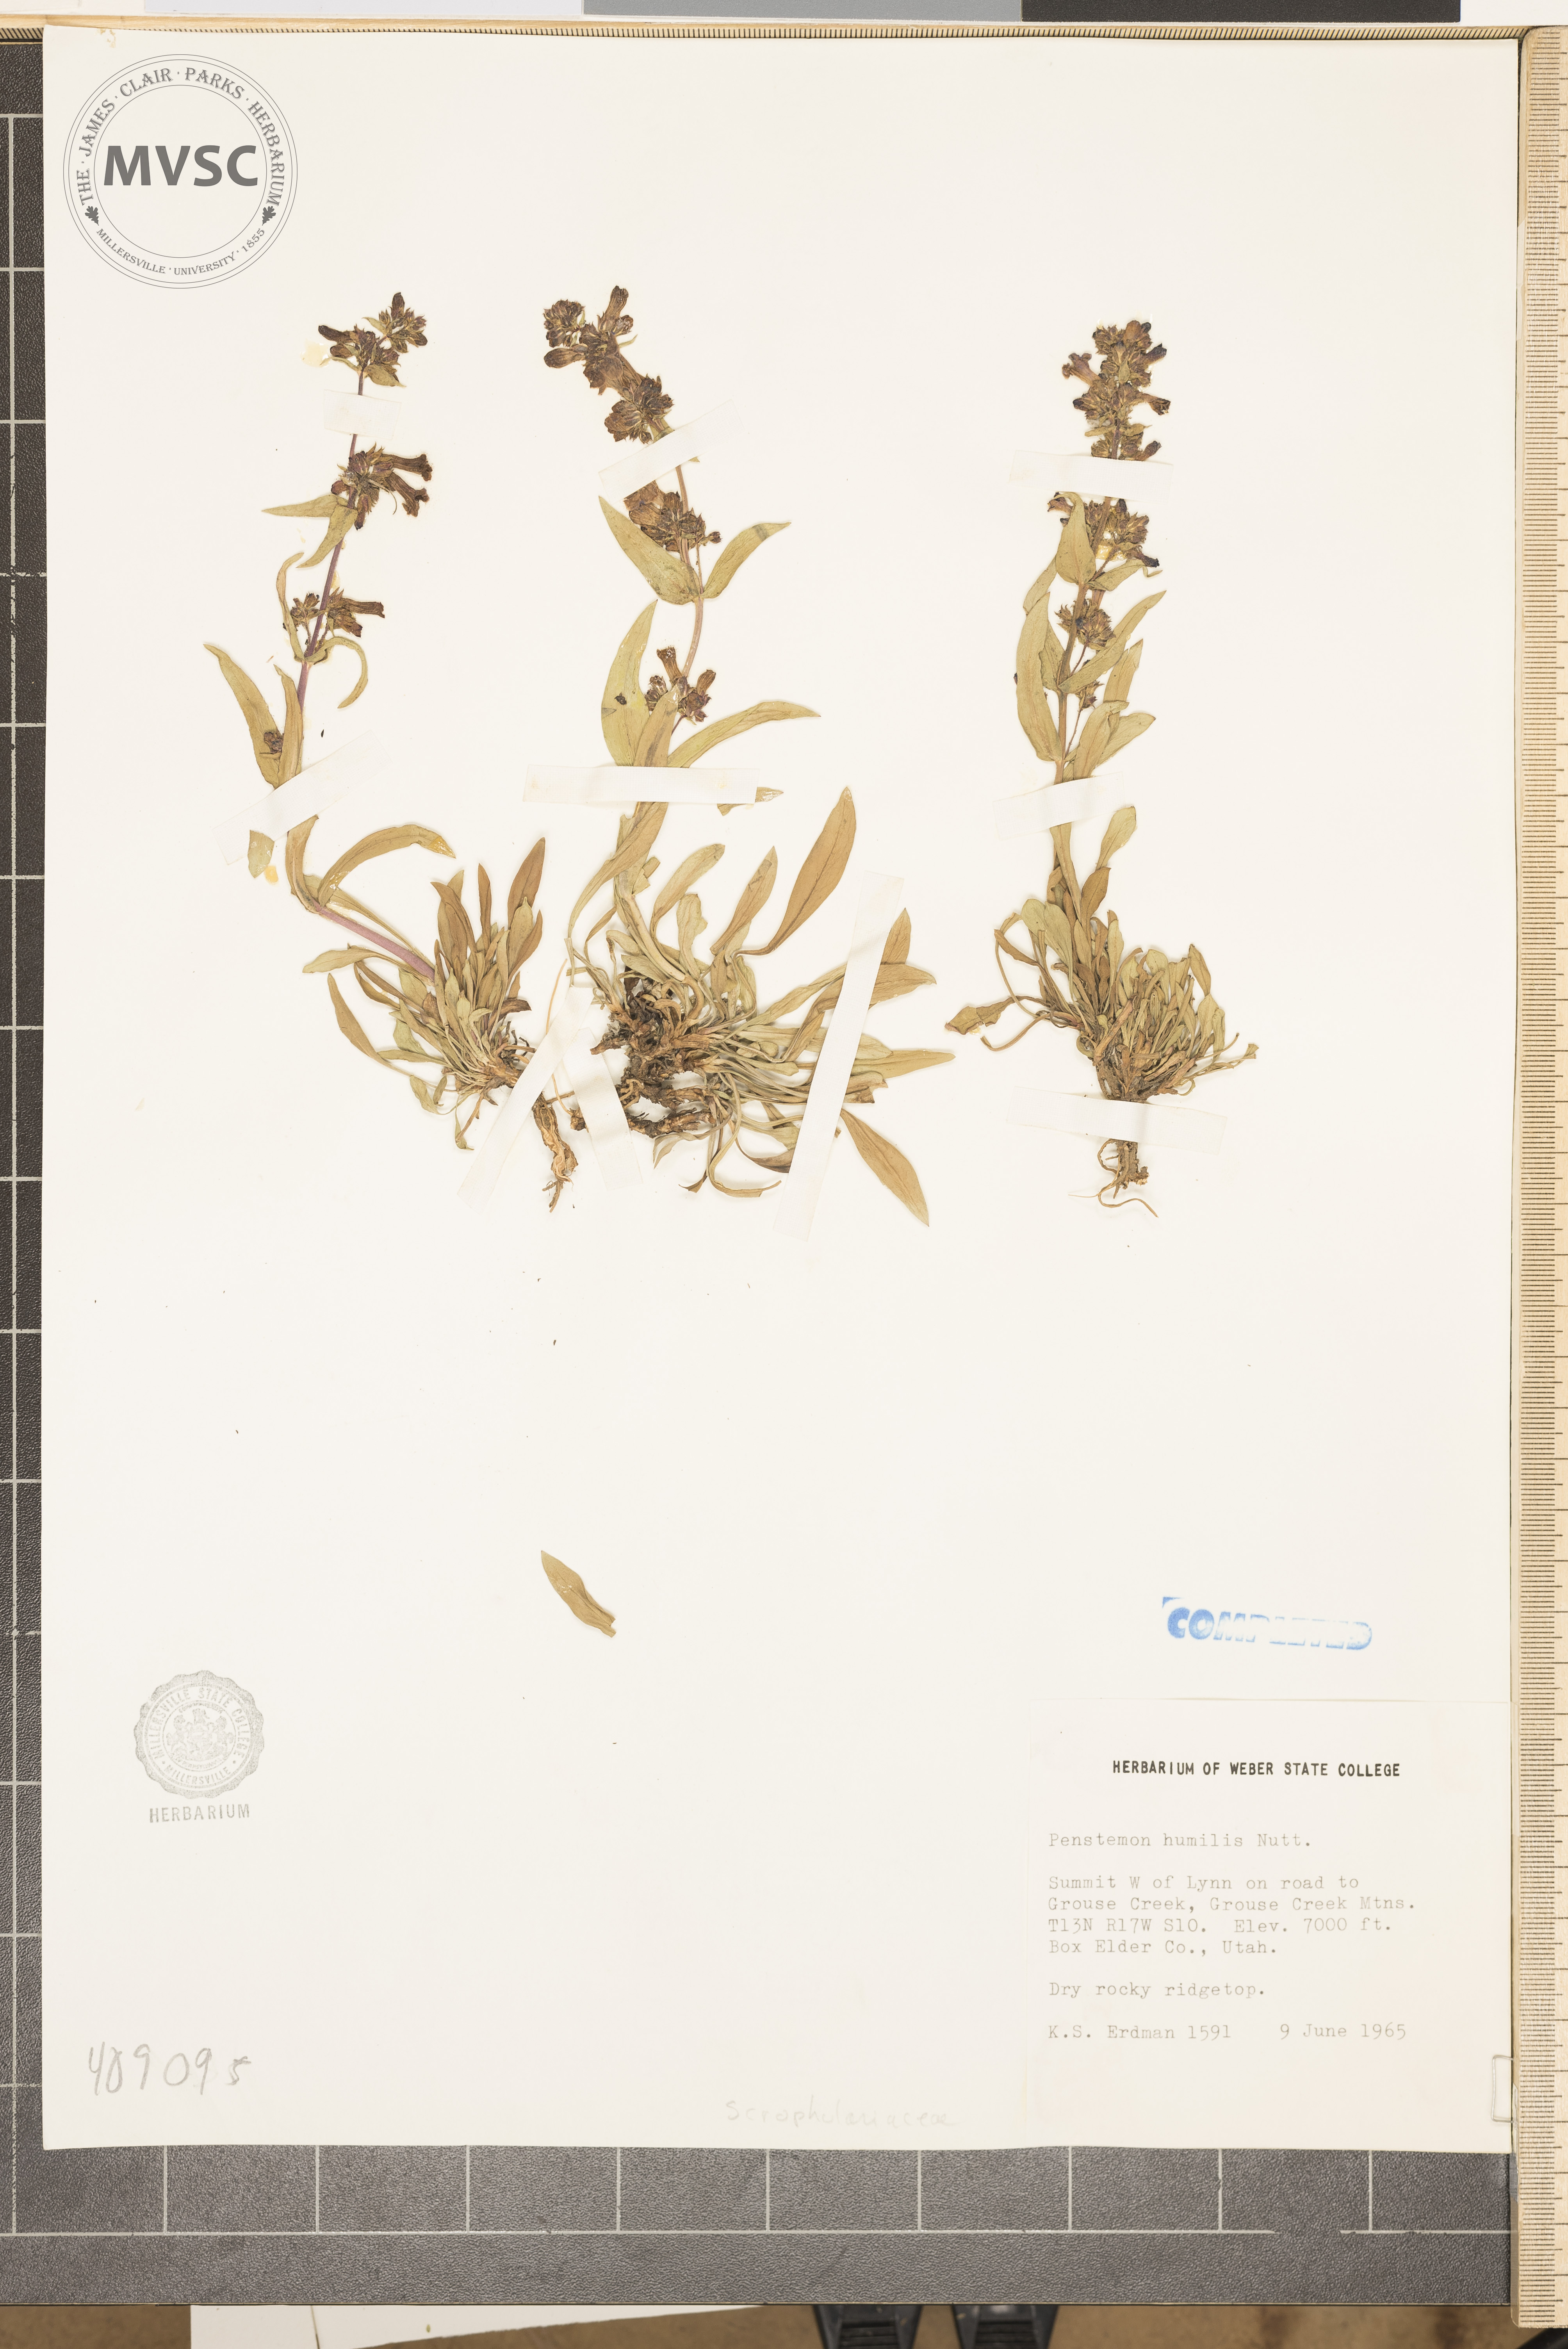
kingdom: Plantae
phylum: Tracheophyta
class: Magnoliopsida
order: Lamiales
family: Plantaginaceae
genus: Penstemon
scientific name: Penstemon humilis
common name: Low penstemon
